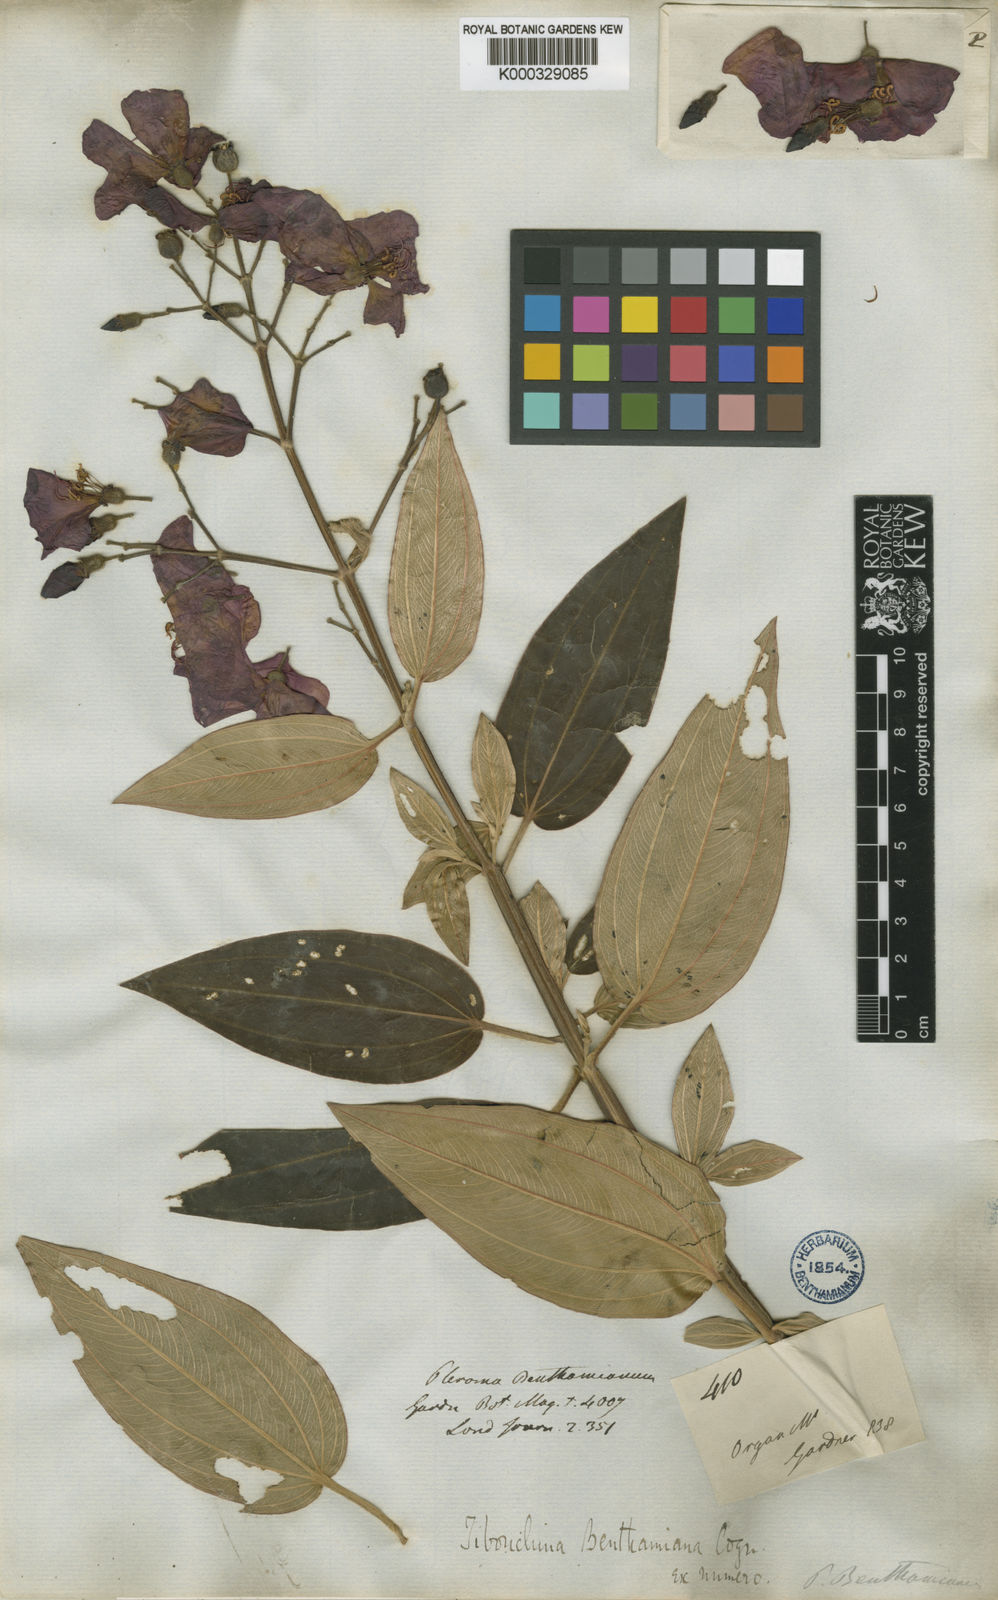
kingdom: Plantae
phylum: Tracheophyta
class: Magnoliopsida
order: Myrtales
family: Melastomataceae
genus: Pleroma
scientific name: Pleroma benthamianum
